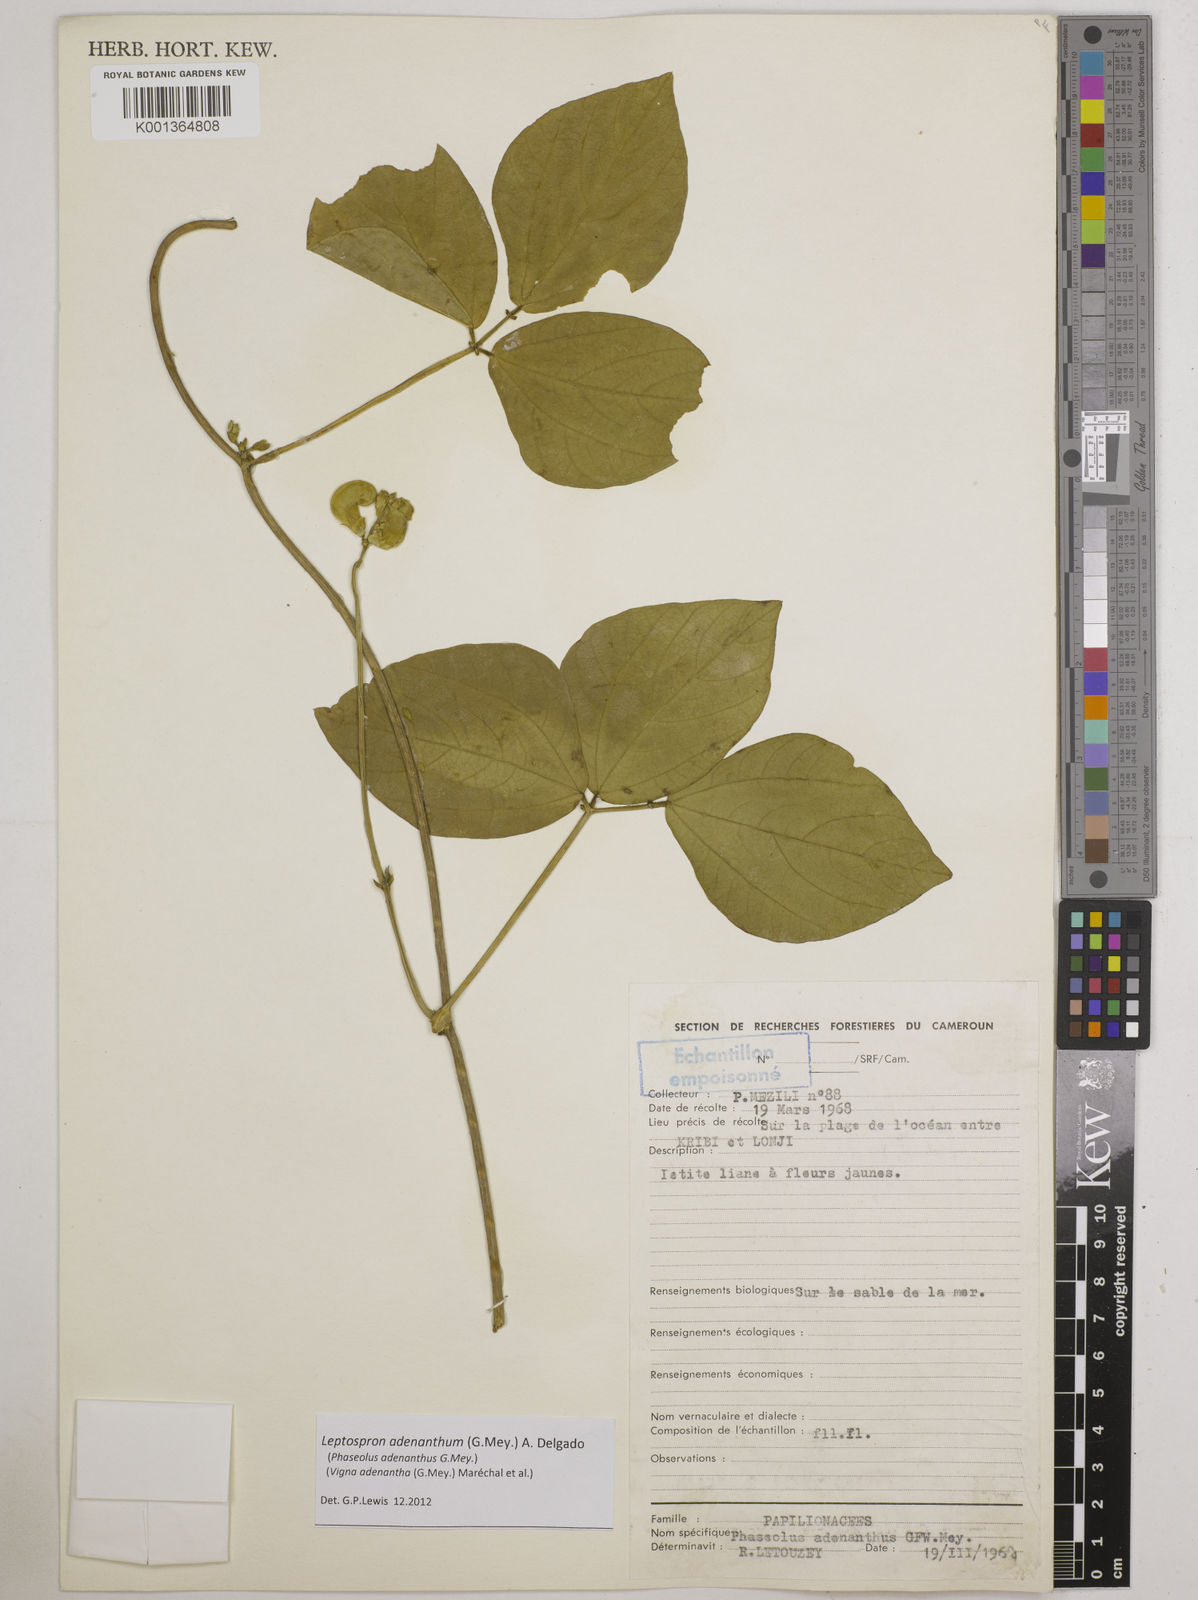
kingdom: Plantae
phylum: Tracheophyta
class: Magnoliopsida
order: Fabales
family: Fabaceae
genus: Leptospron
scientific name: Leptospron adenanthum
